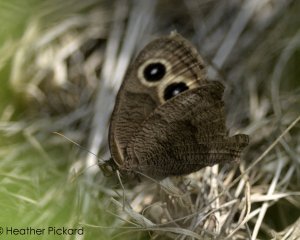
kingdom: Animalia
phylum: Arthropoda
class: Insecta
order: Lepidoptera
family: Nymphalidae
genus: Cercyonis
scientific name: Cercyonis pegala
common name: Common Wood-Nymph
